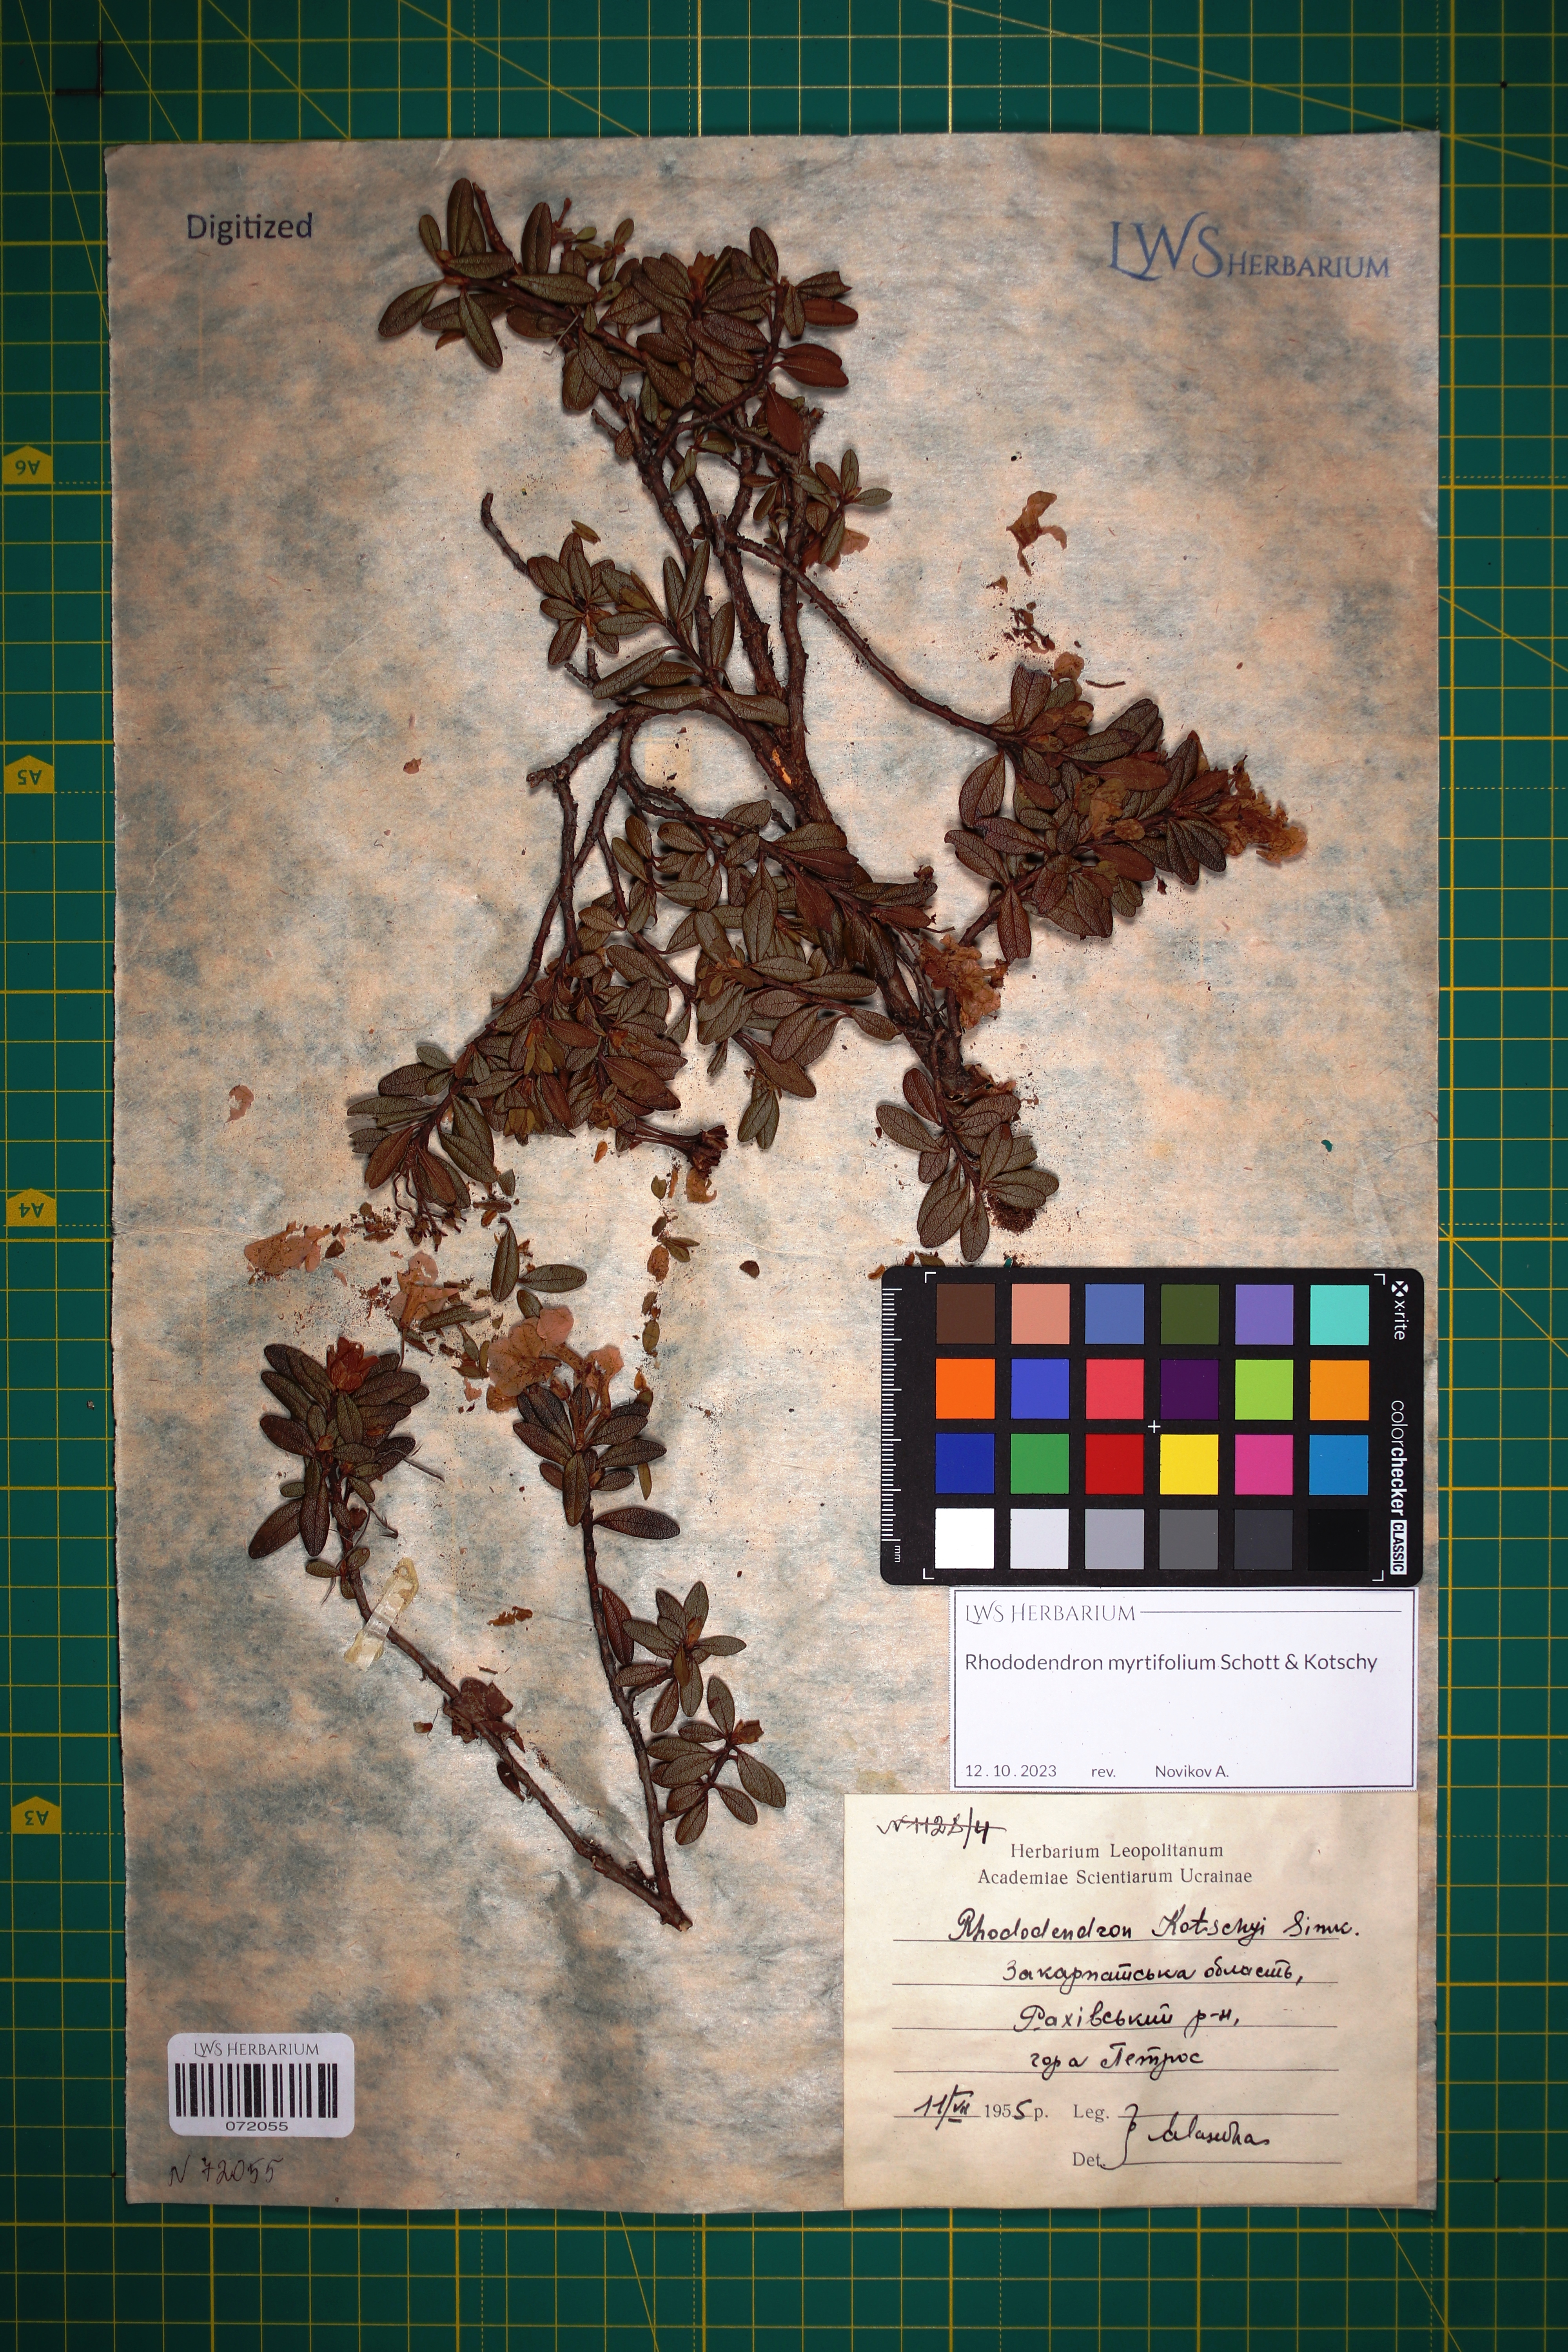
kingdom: Plantae
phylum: Tracheophyta
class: Magnoliopsida
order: Ericales
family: Ericaceae
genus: Rhododendron
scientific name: Rhododendron kotschyi
